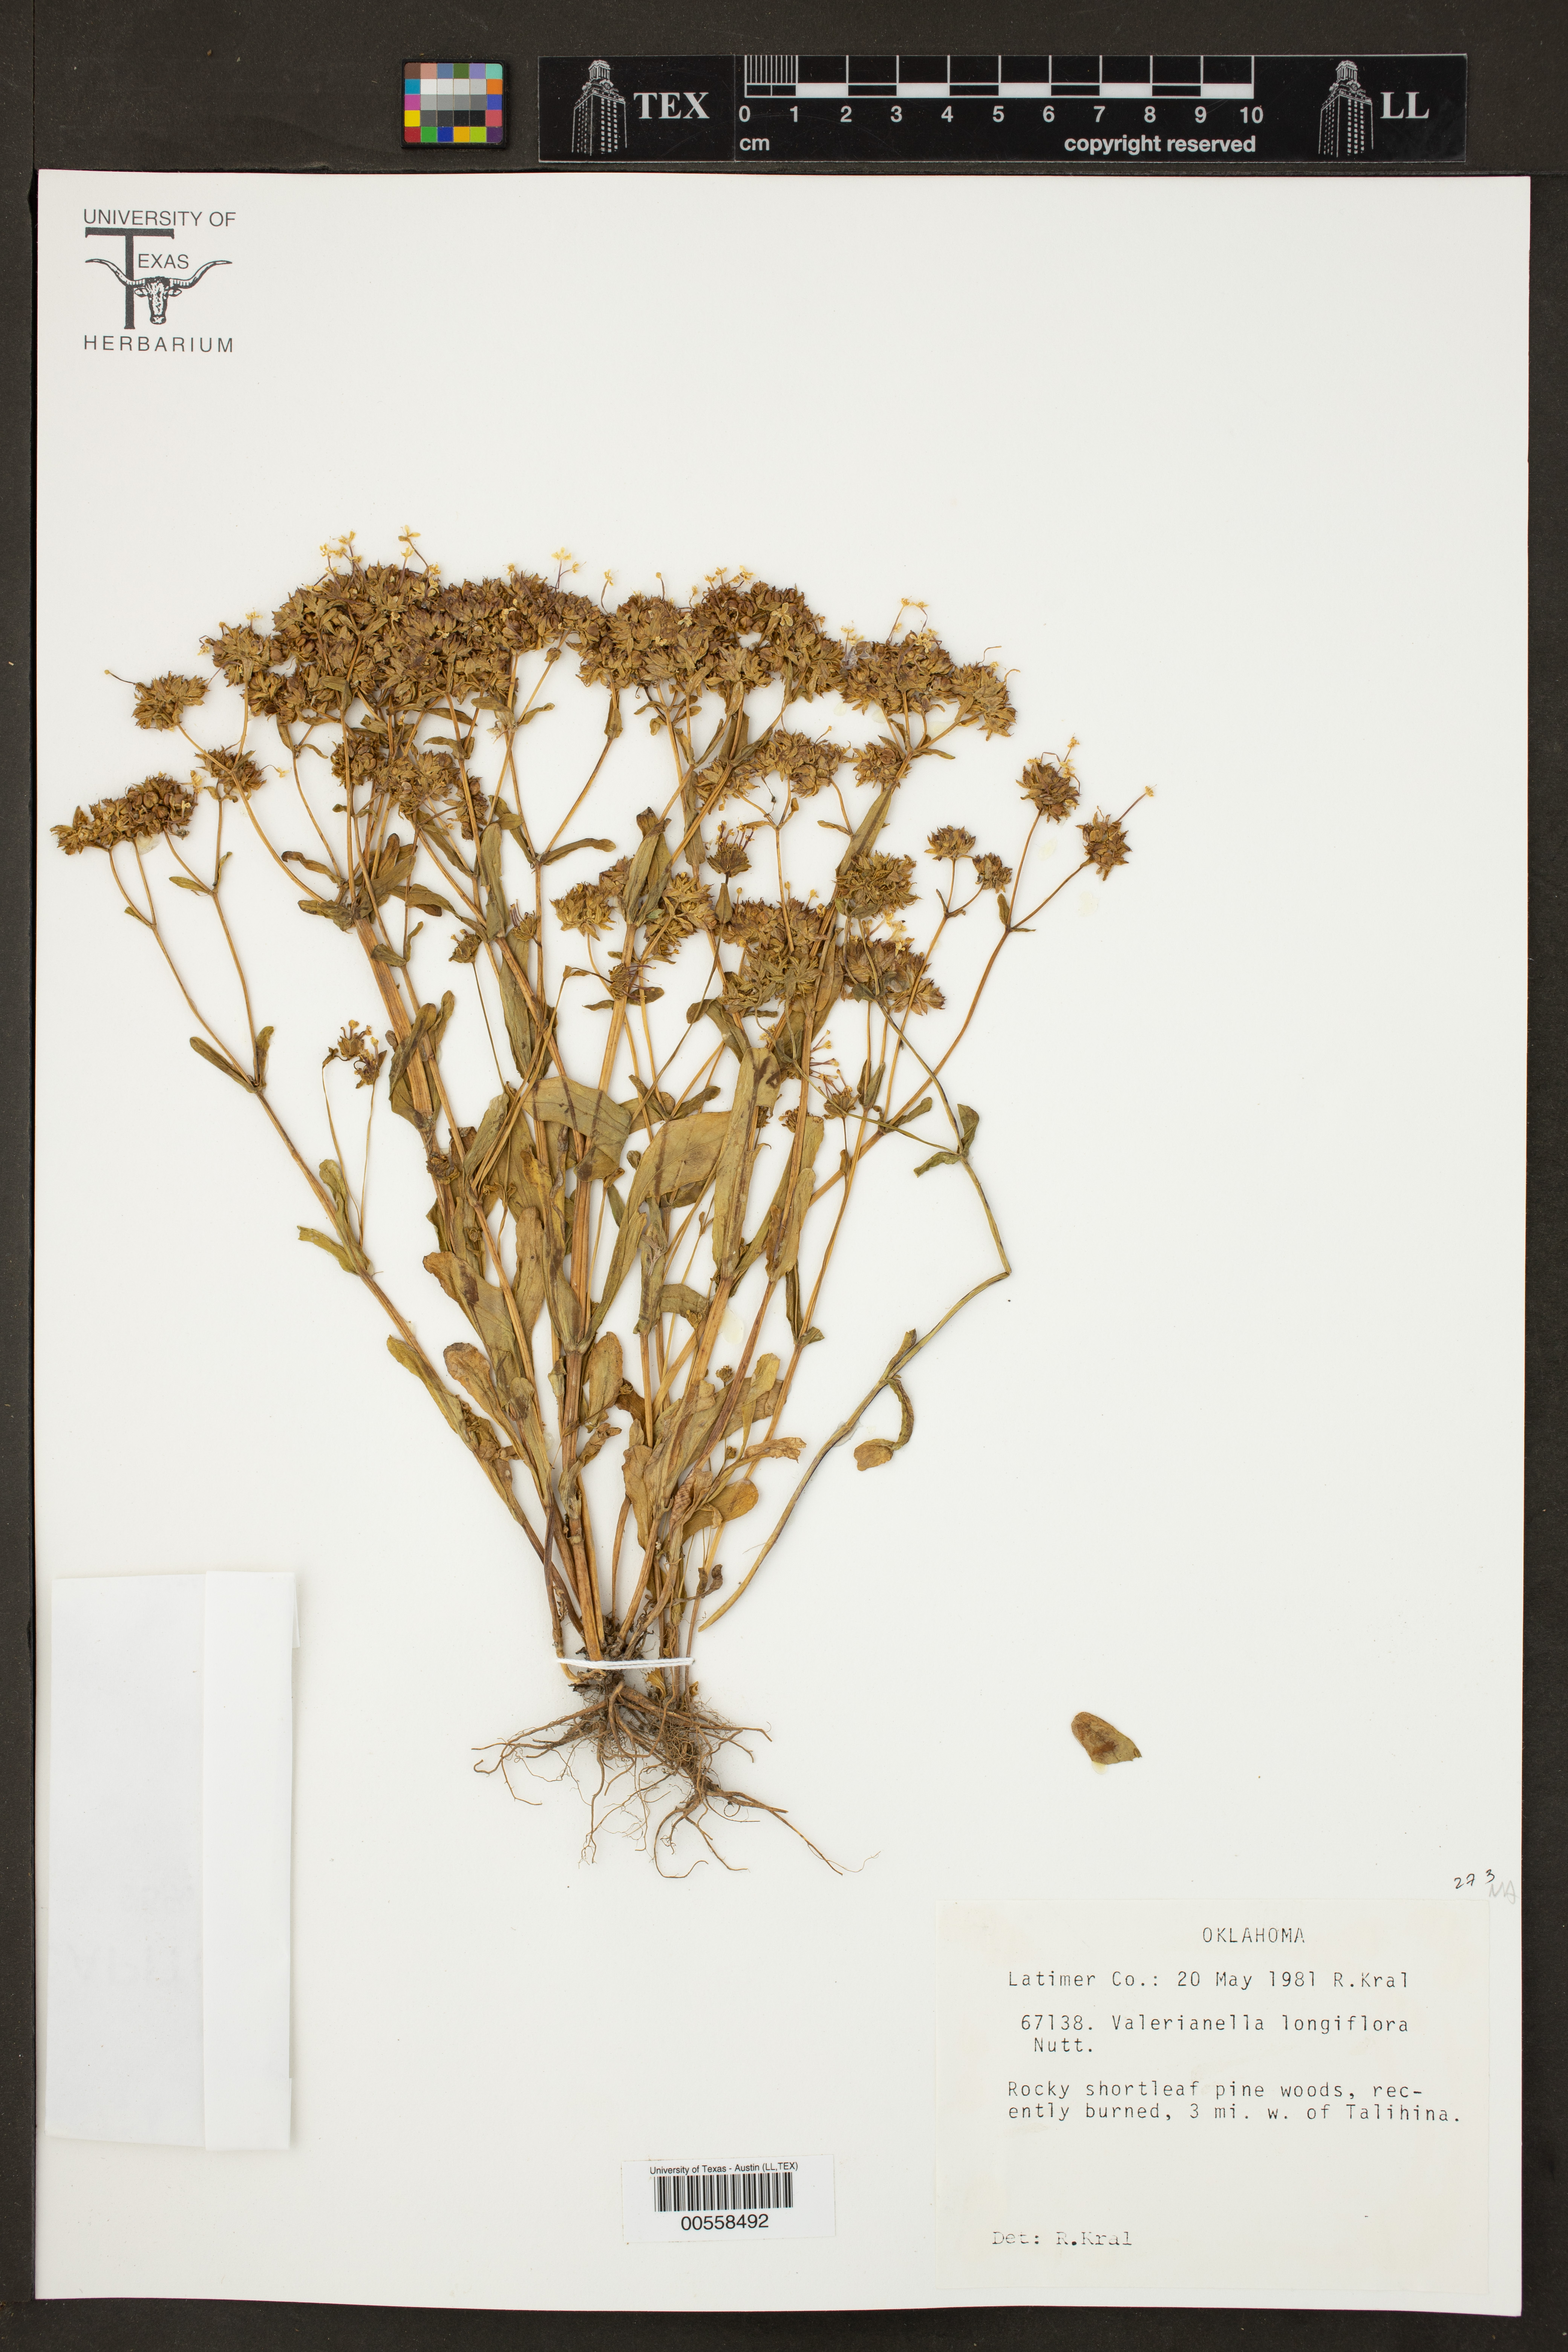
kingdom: Plantae
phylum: Tracheophyta
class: Magnoliopsida
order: Dipsacales
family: Caprifoliaceae
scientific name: Caprifoliaceae
